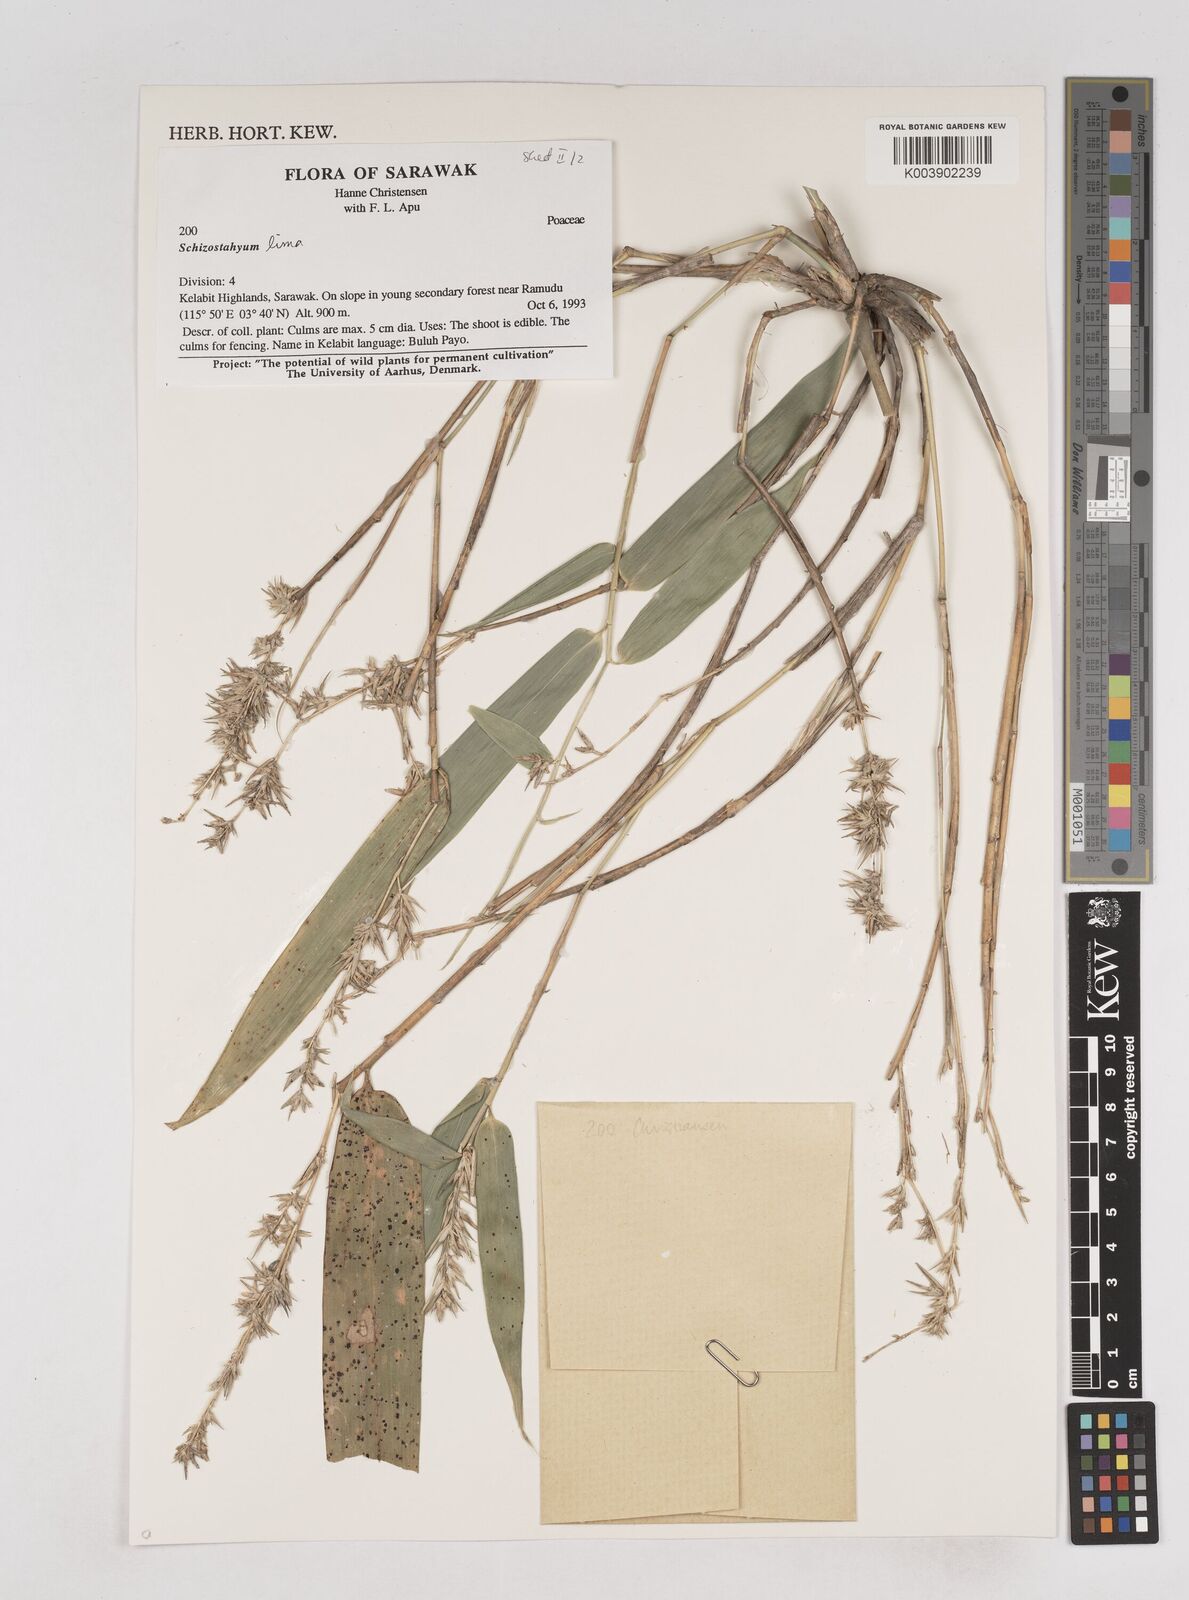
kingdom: Plantae
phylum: Tracheophyta
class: Liliopsida
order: Poales
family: Poaceae
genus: Schizostachyum
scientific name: Schizostachyum lima
